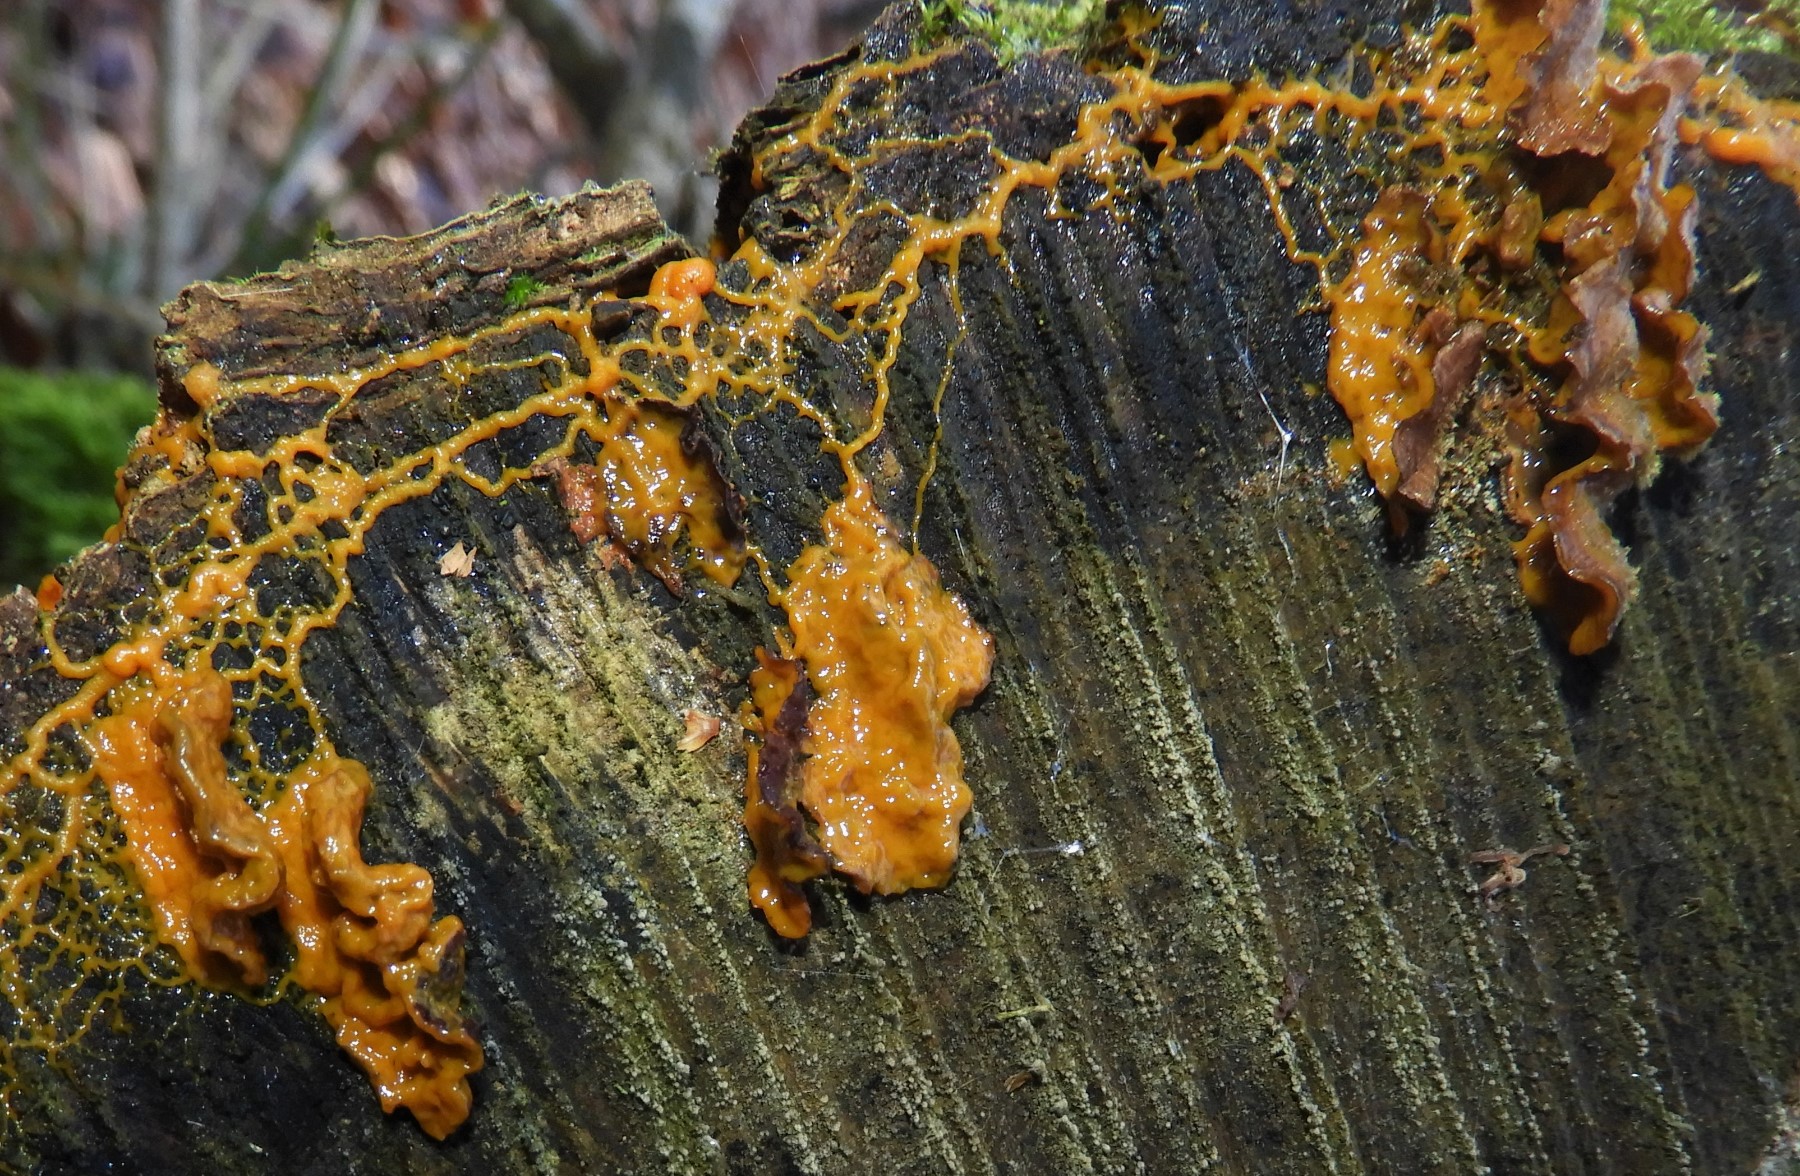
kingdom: Protozoa
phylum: Mycetozoa
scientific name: Mycetozoa
